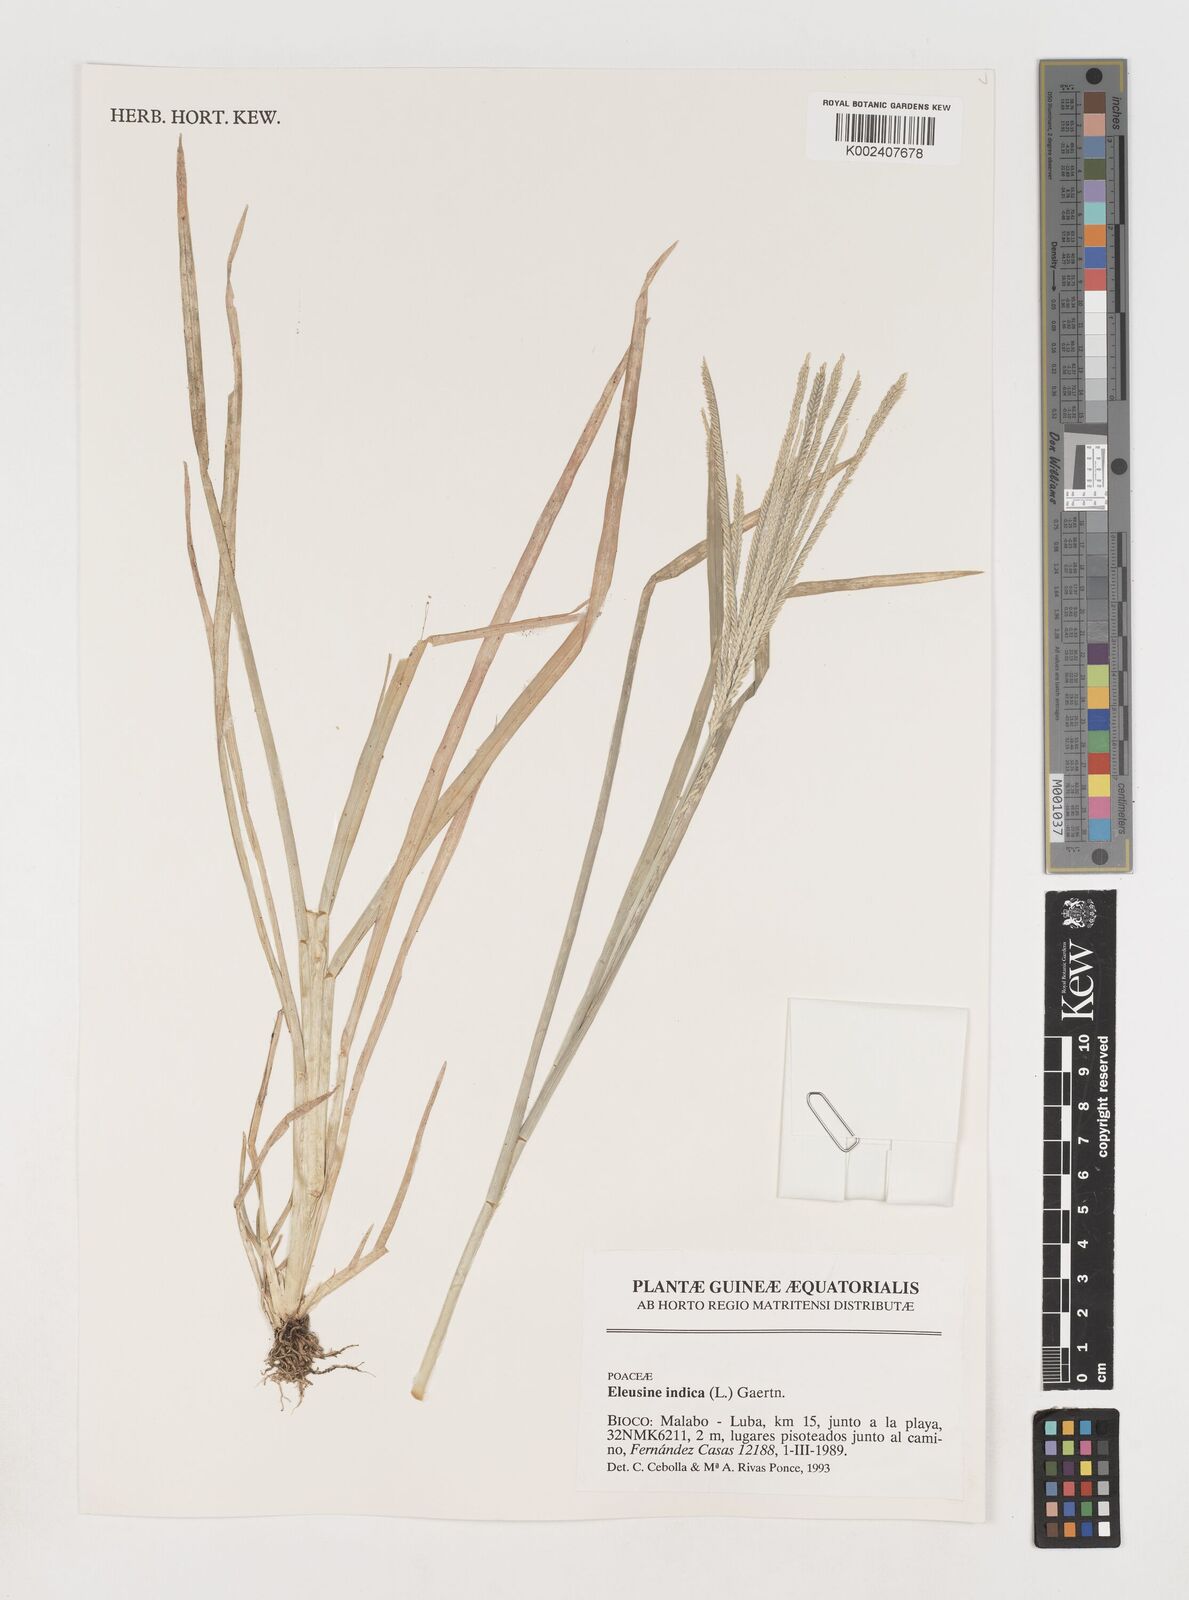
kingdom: Plantae
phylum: Tracheophyta
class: Liliopsida
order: Poales
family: Poaceae
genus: Eleusine
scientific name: Eleusine indica
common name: Yard-grass
